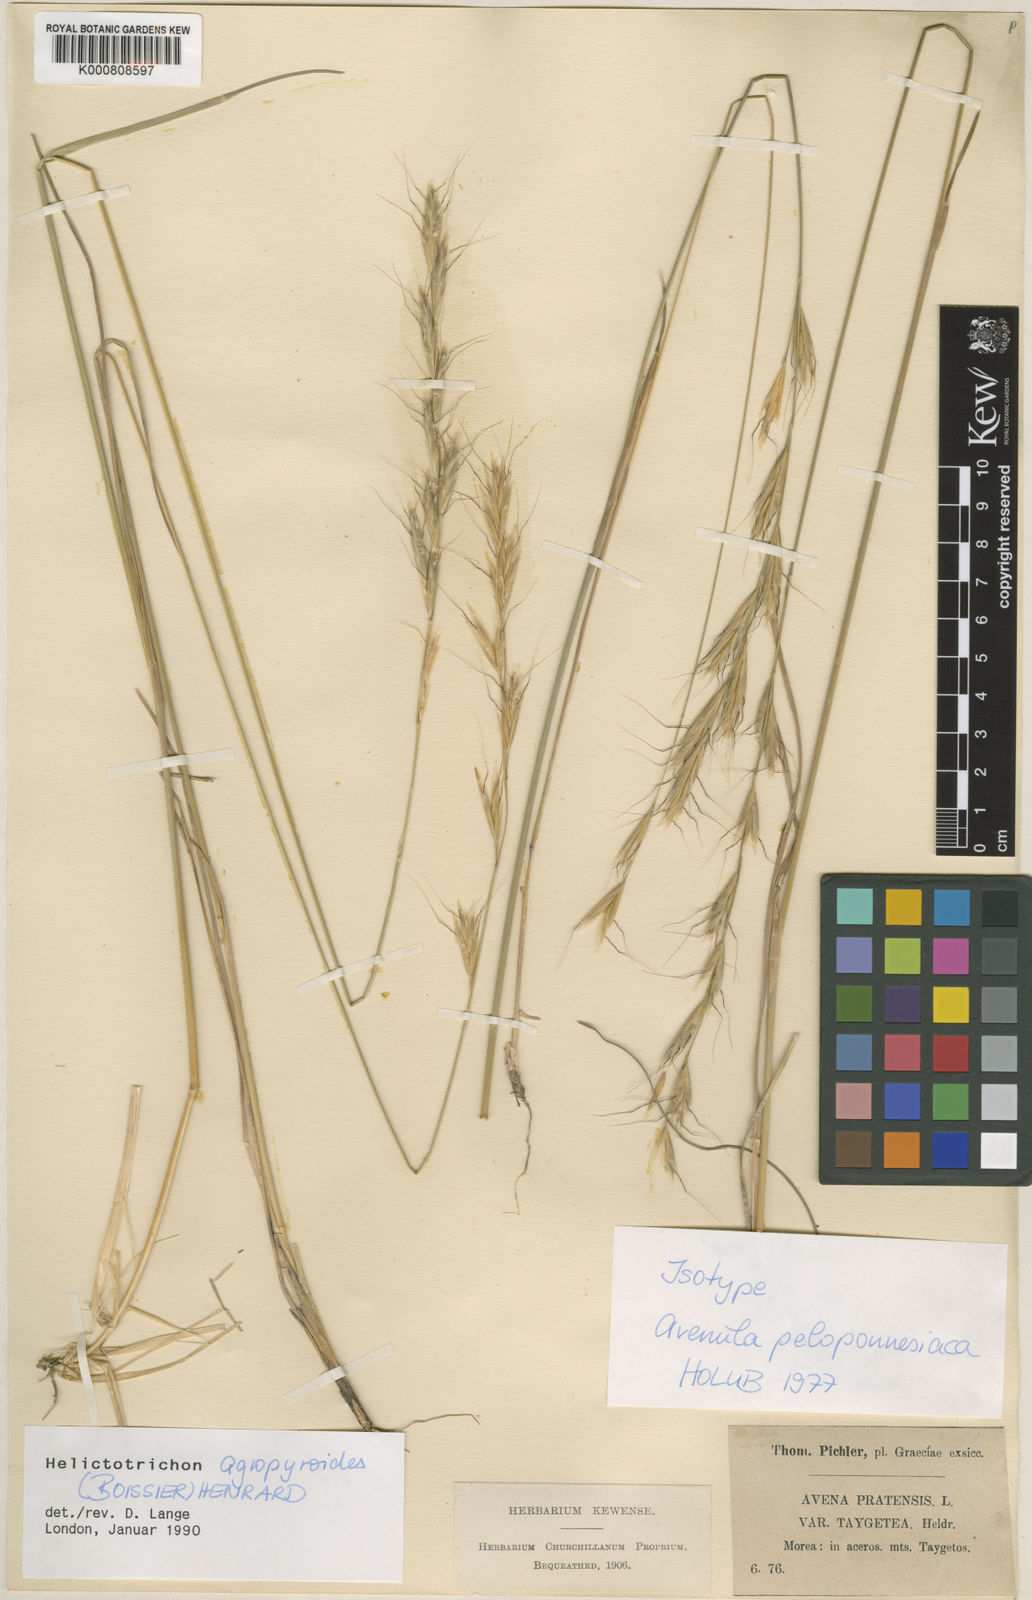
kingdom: Plantae
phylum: Tracheophyta
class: Liliopsida
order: Poales
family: Poaceae
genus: Helictochloa
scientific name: Helictochloa agropyroides
